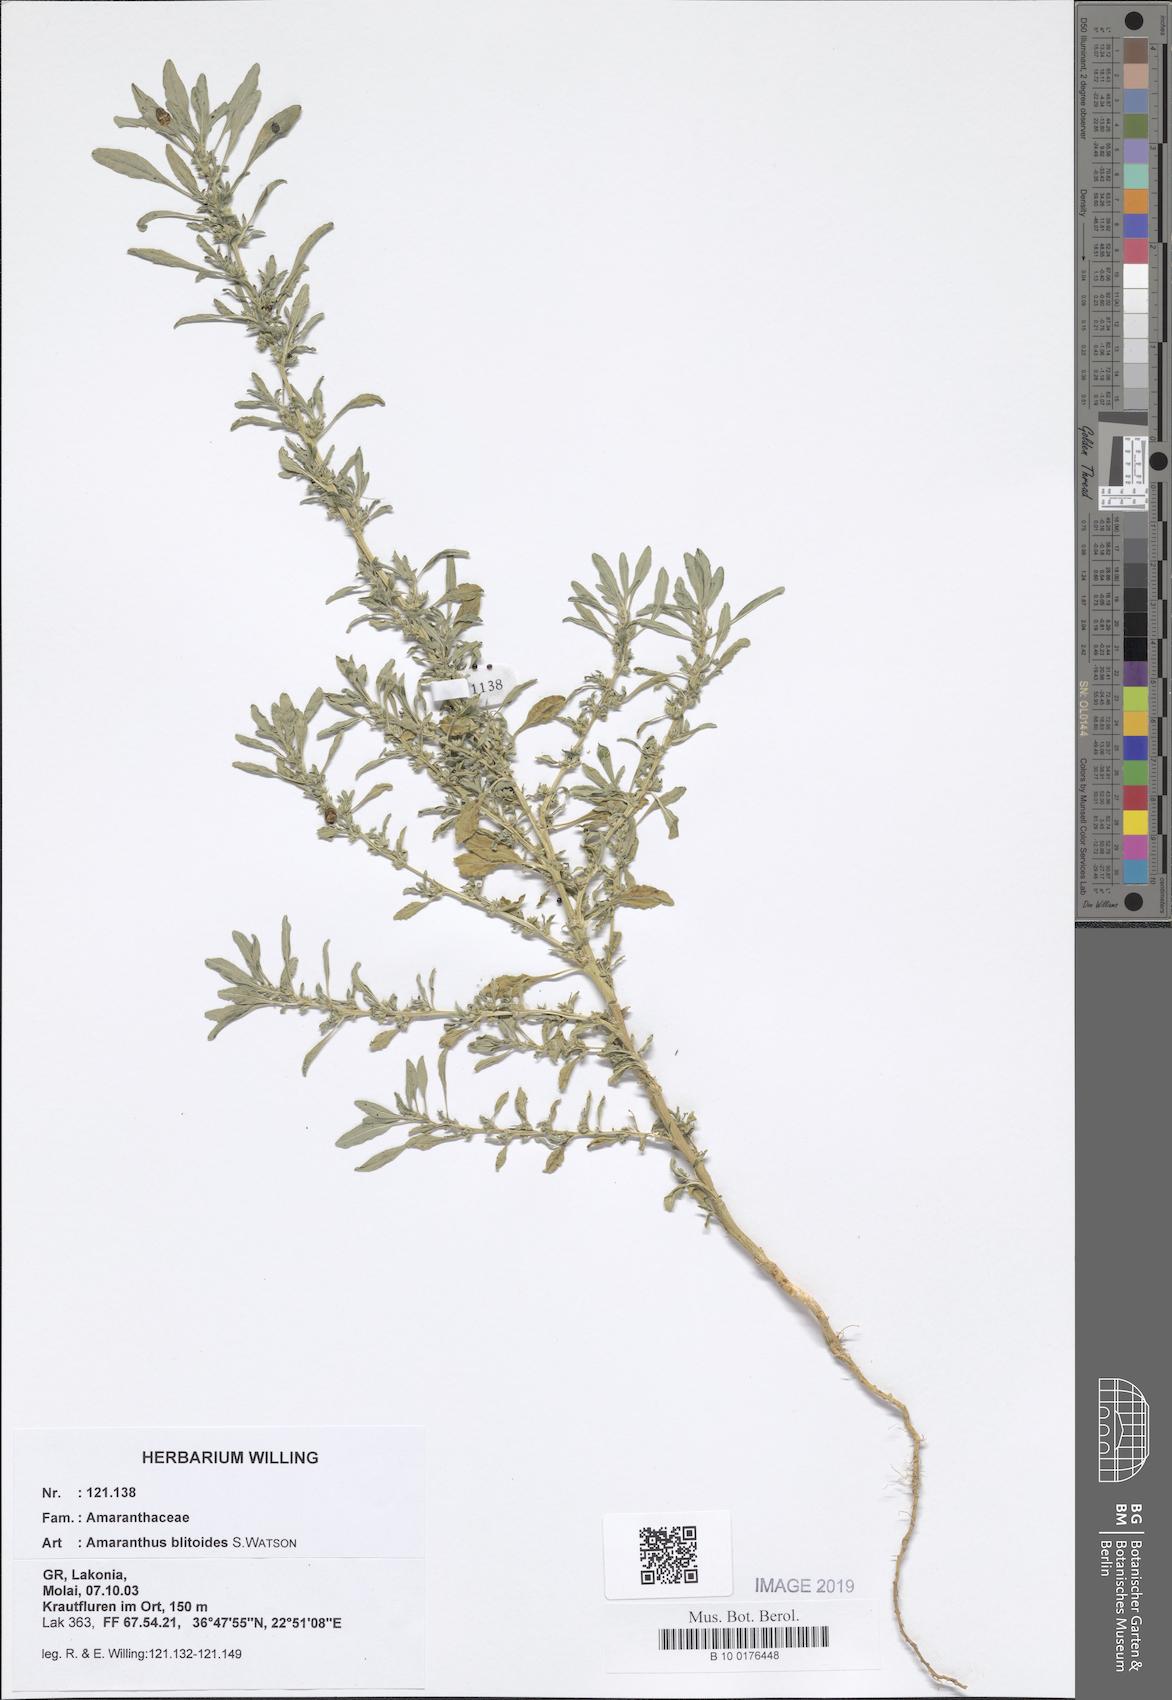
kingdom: Plantae
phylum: Tracheophyta
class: Magnoliopsida
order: Caryophyllales
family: Amaranthaceae
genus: Amaranthus
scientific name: Amaranthus blitoides
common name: Prostrate pigweed
